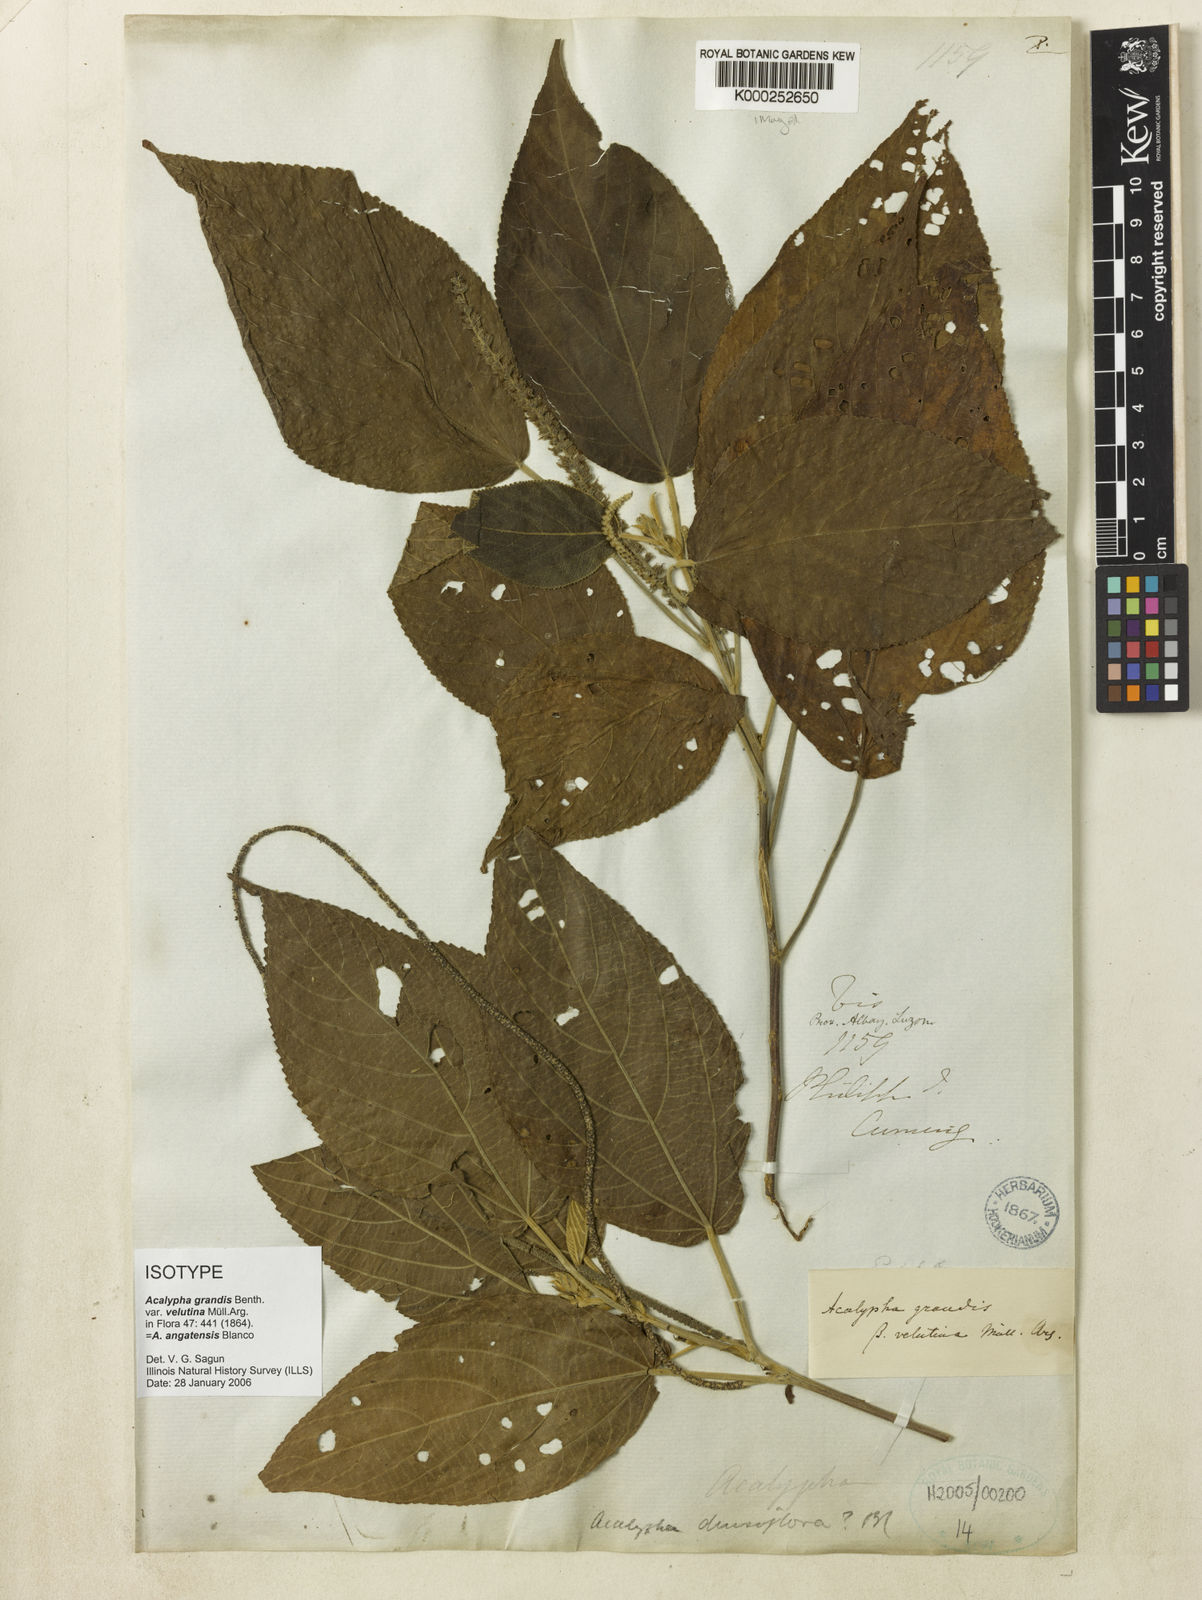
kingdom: Plantae
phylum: Tracheophyta
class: Magnoliopsida
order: Malpighiales
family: Euphorbiaceae
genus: Acalypha
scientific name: Acalypha angatensis
